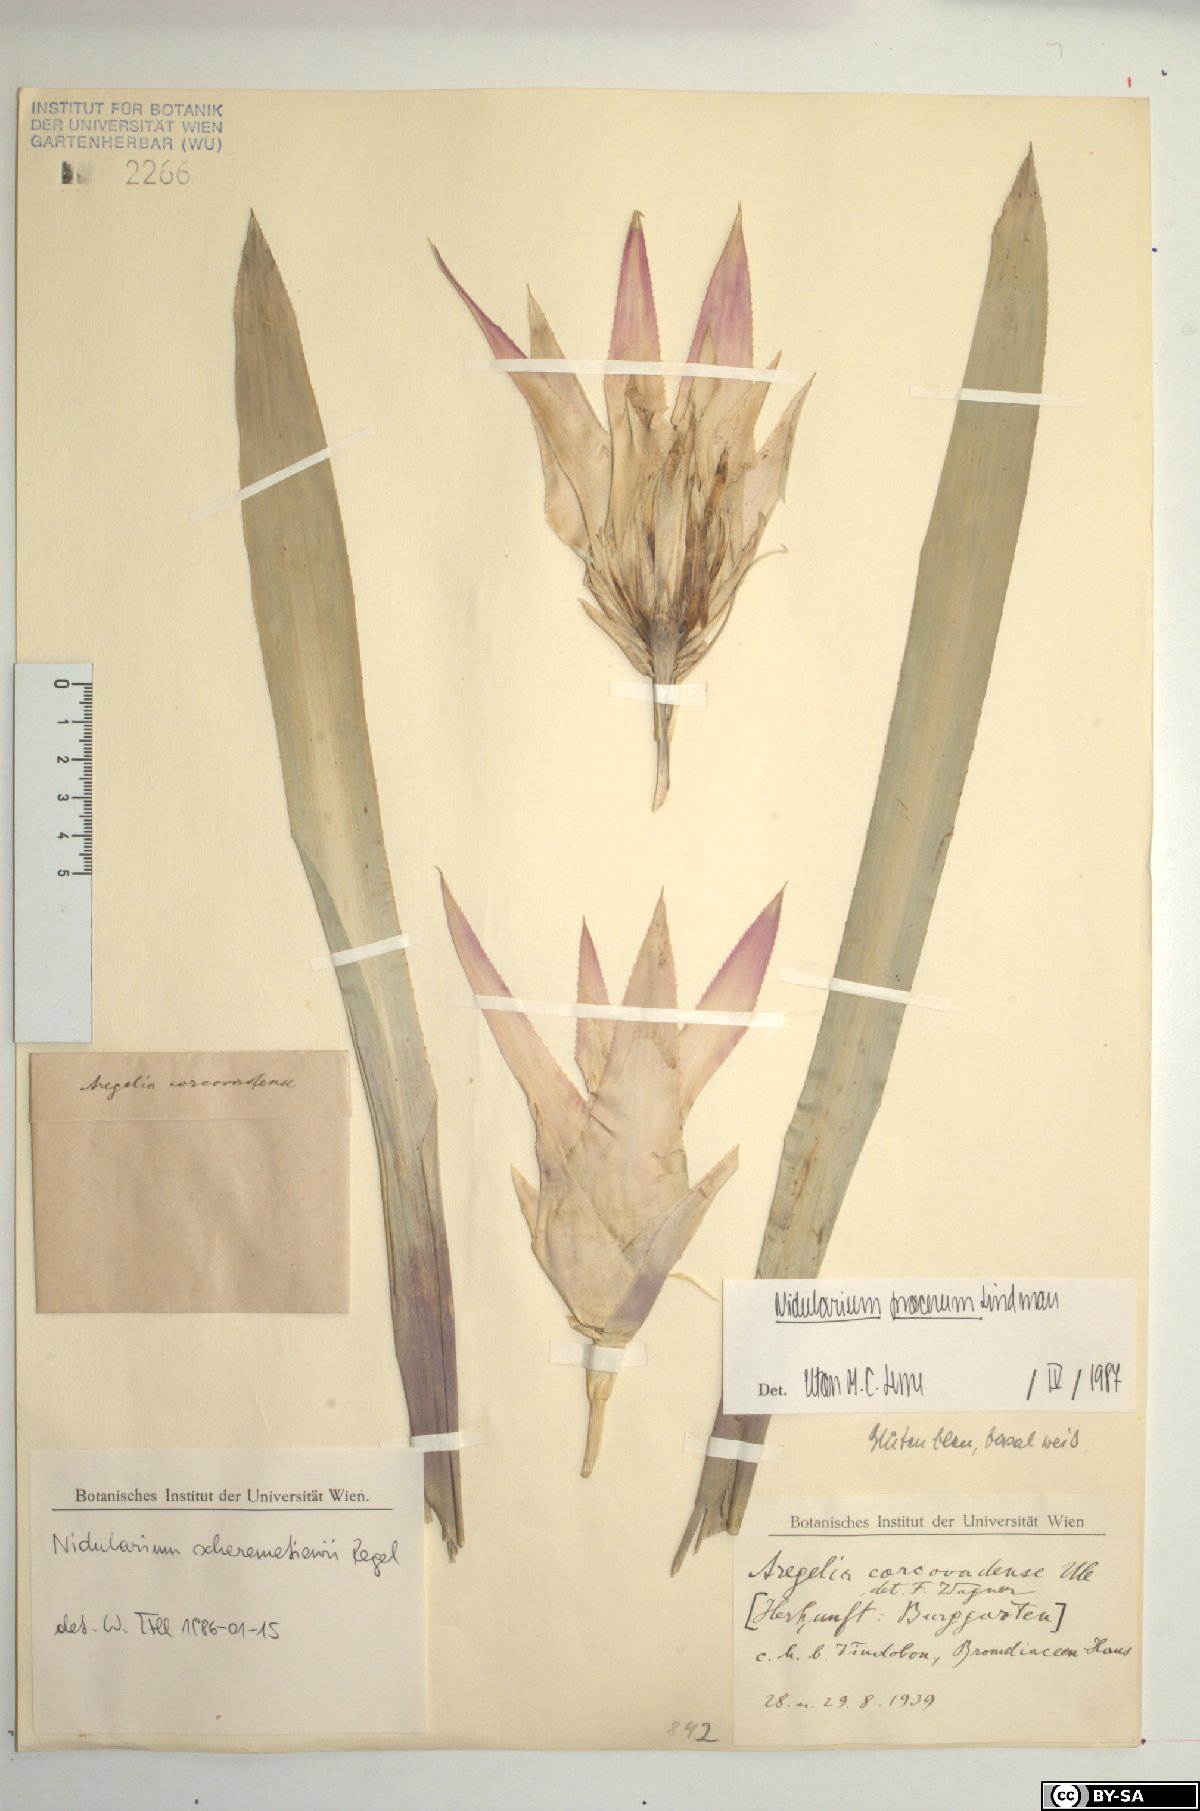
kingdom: Plantae
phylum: Tracheophyta
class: Liliopsida
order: Poales
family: Bromeliaceae
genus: Nidularium
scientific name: Nidularium procerum
